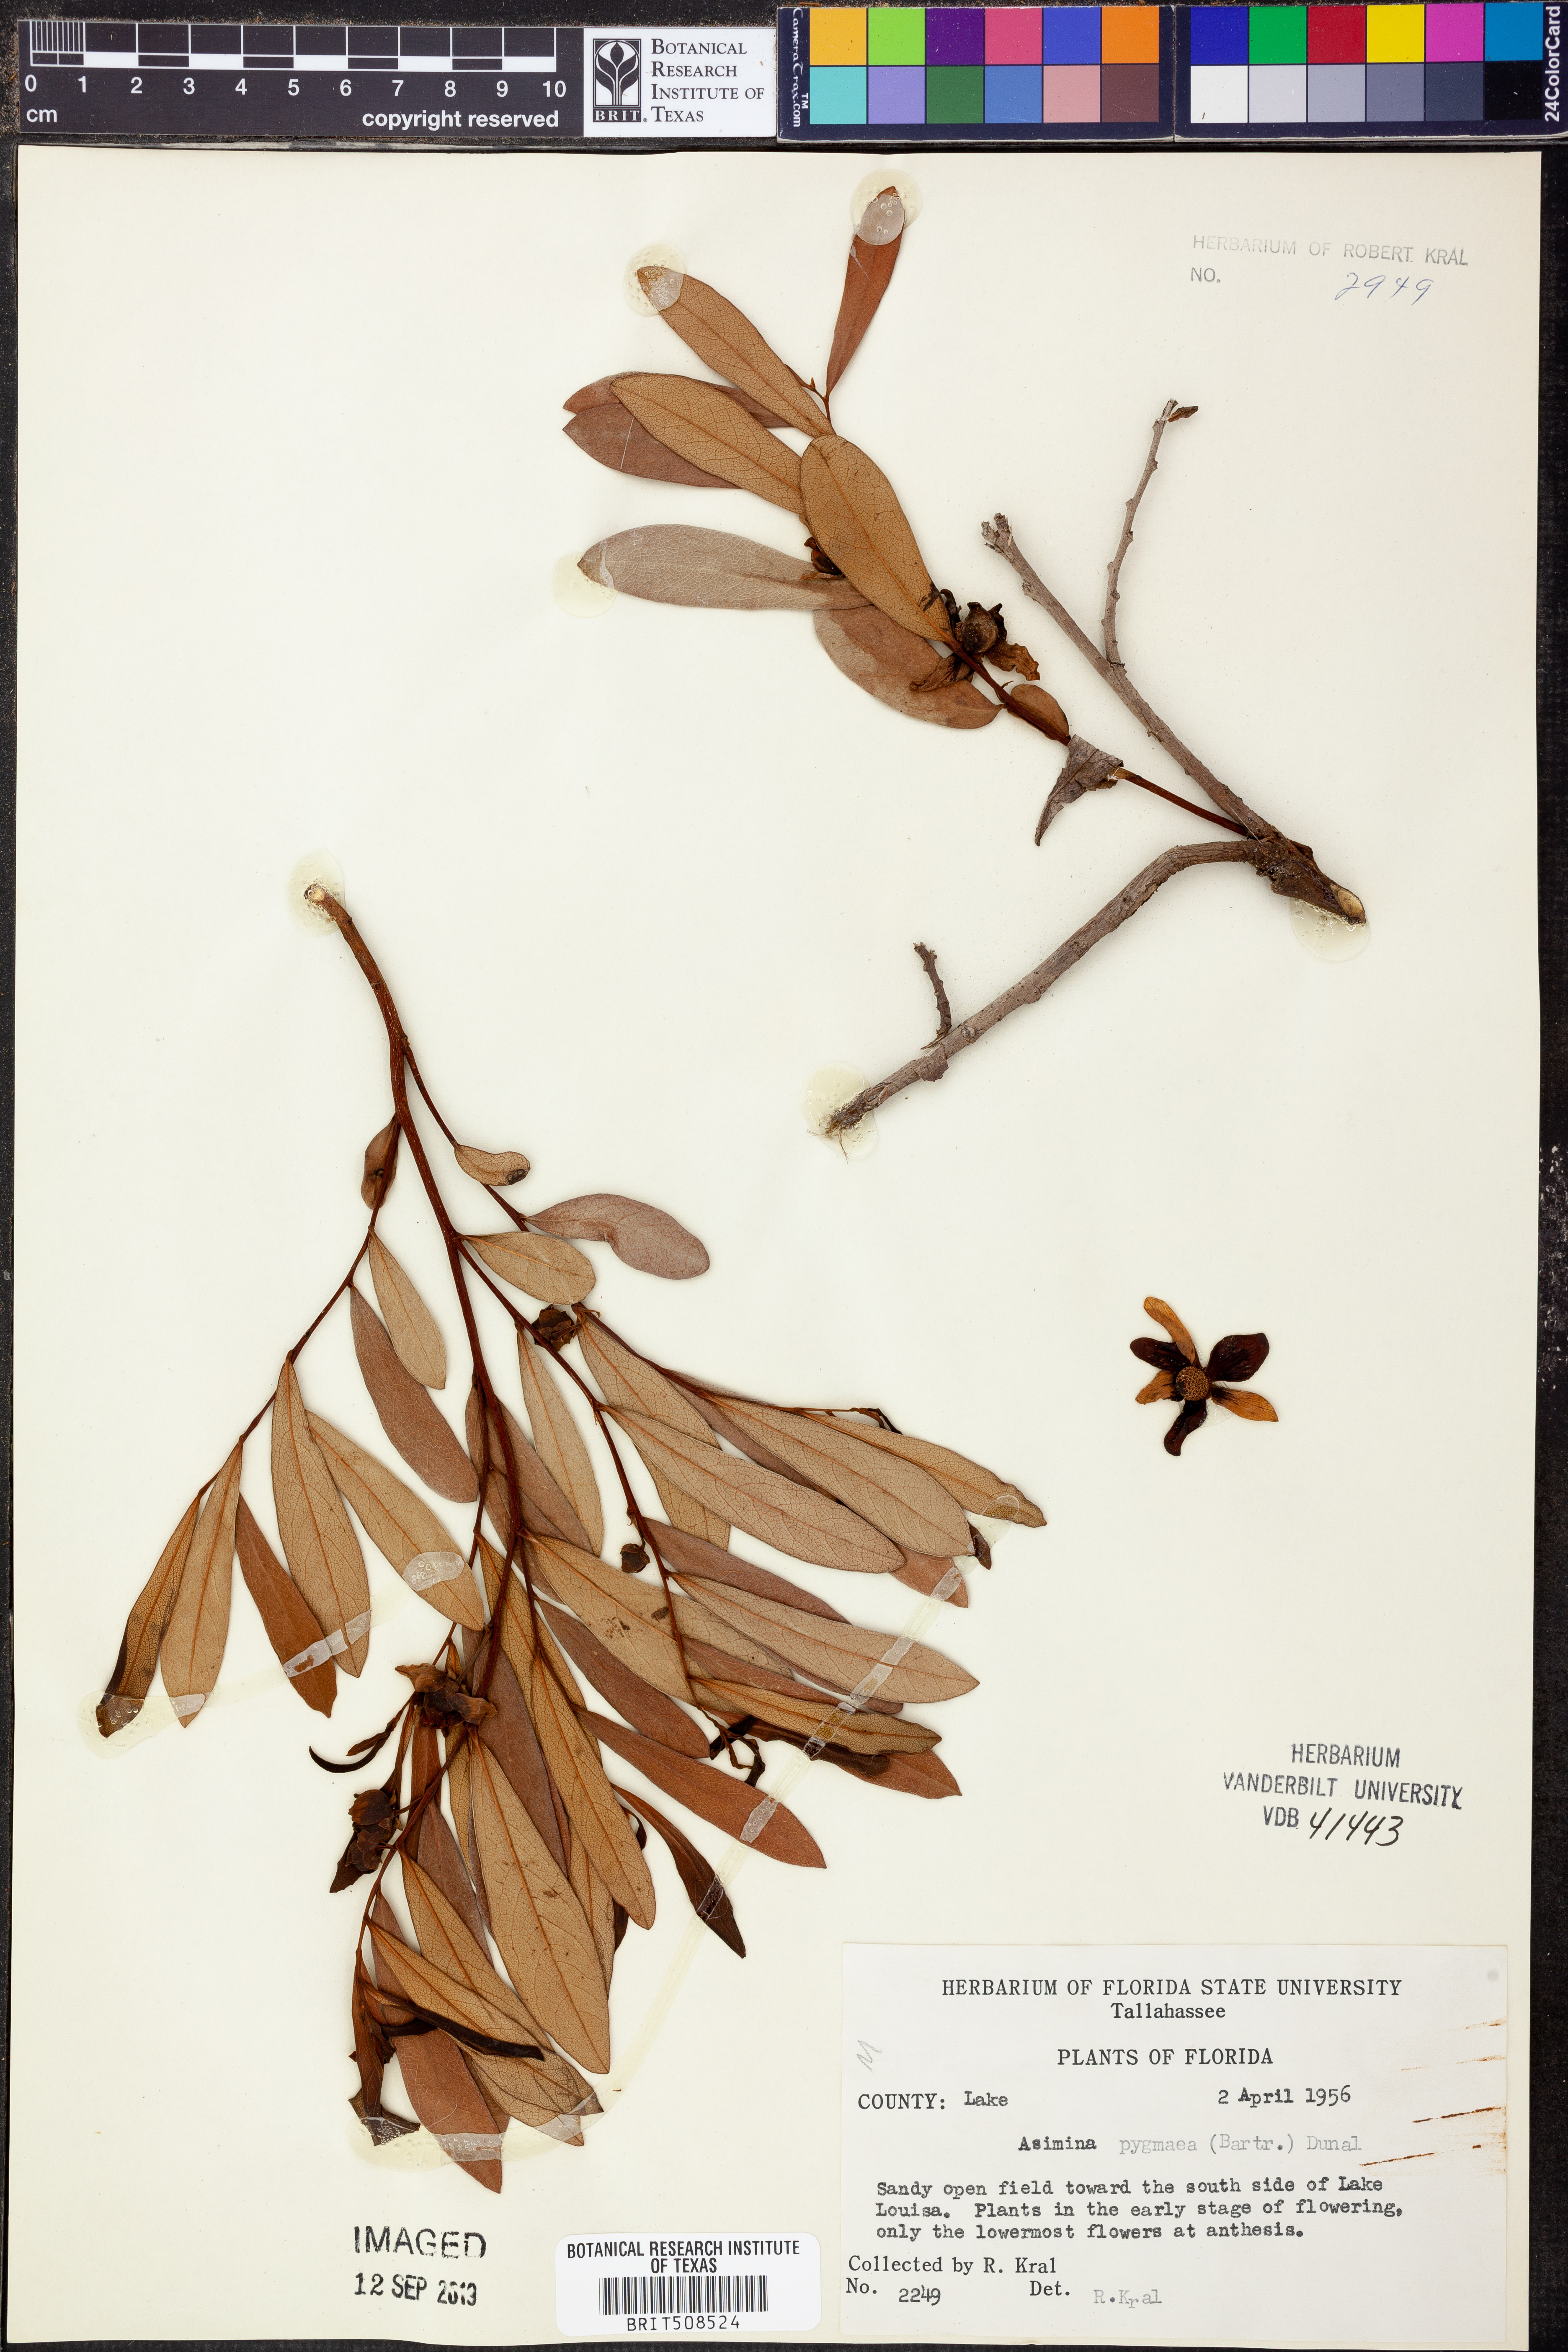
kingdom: Plantae
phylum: Tracheophyta
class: Magnoliopsida
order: Magnoliales
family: Annonaceae
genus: Asimina
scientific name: Asimina pygmaea
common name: Dwarf pawpaw
